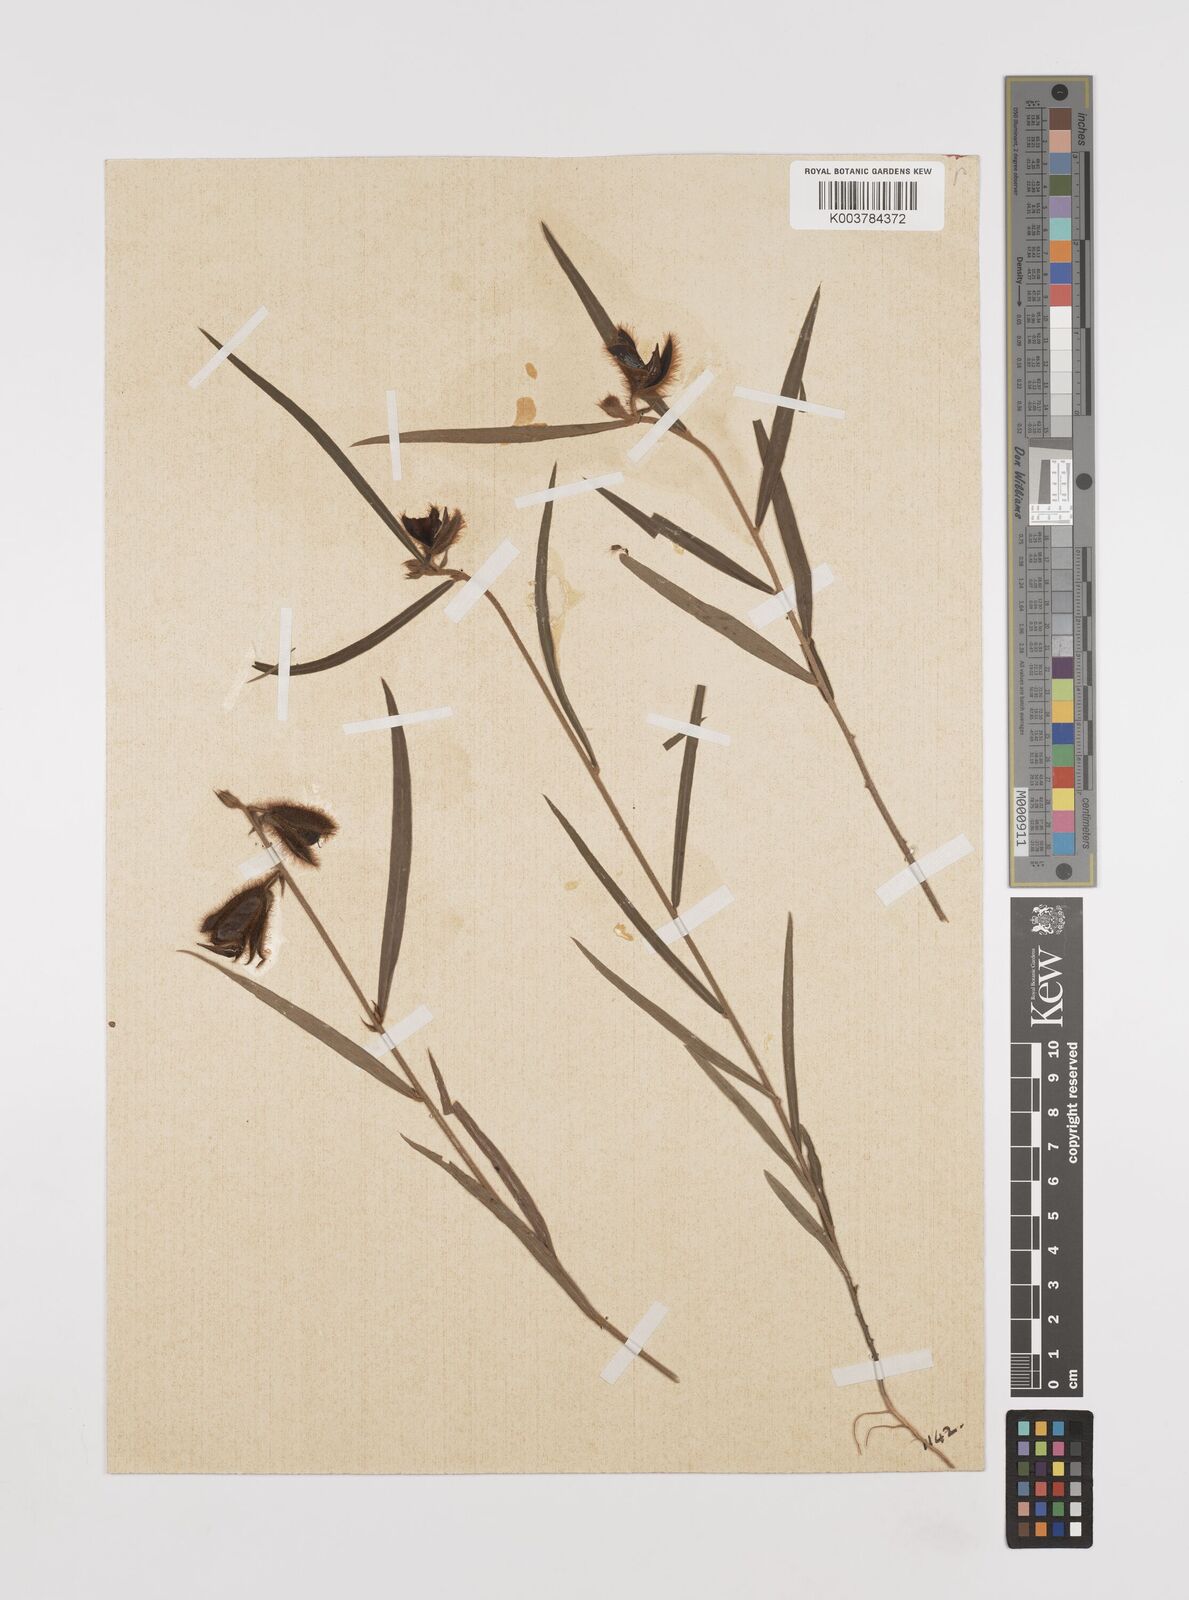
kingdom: Plantae
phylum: Tracheophyta
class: Magnoliopsida
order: Fabales
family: Fabaceae
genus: Crotalaria
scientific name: Crotalaria calycina
